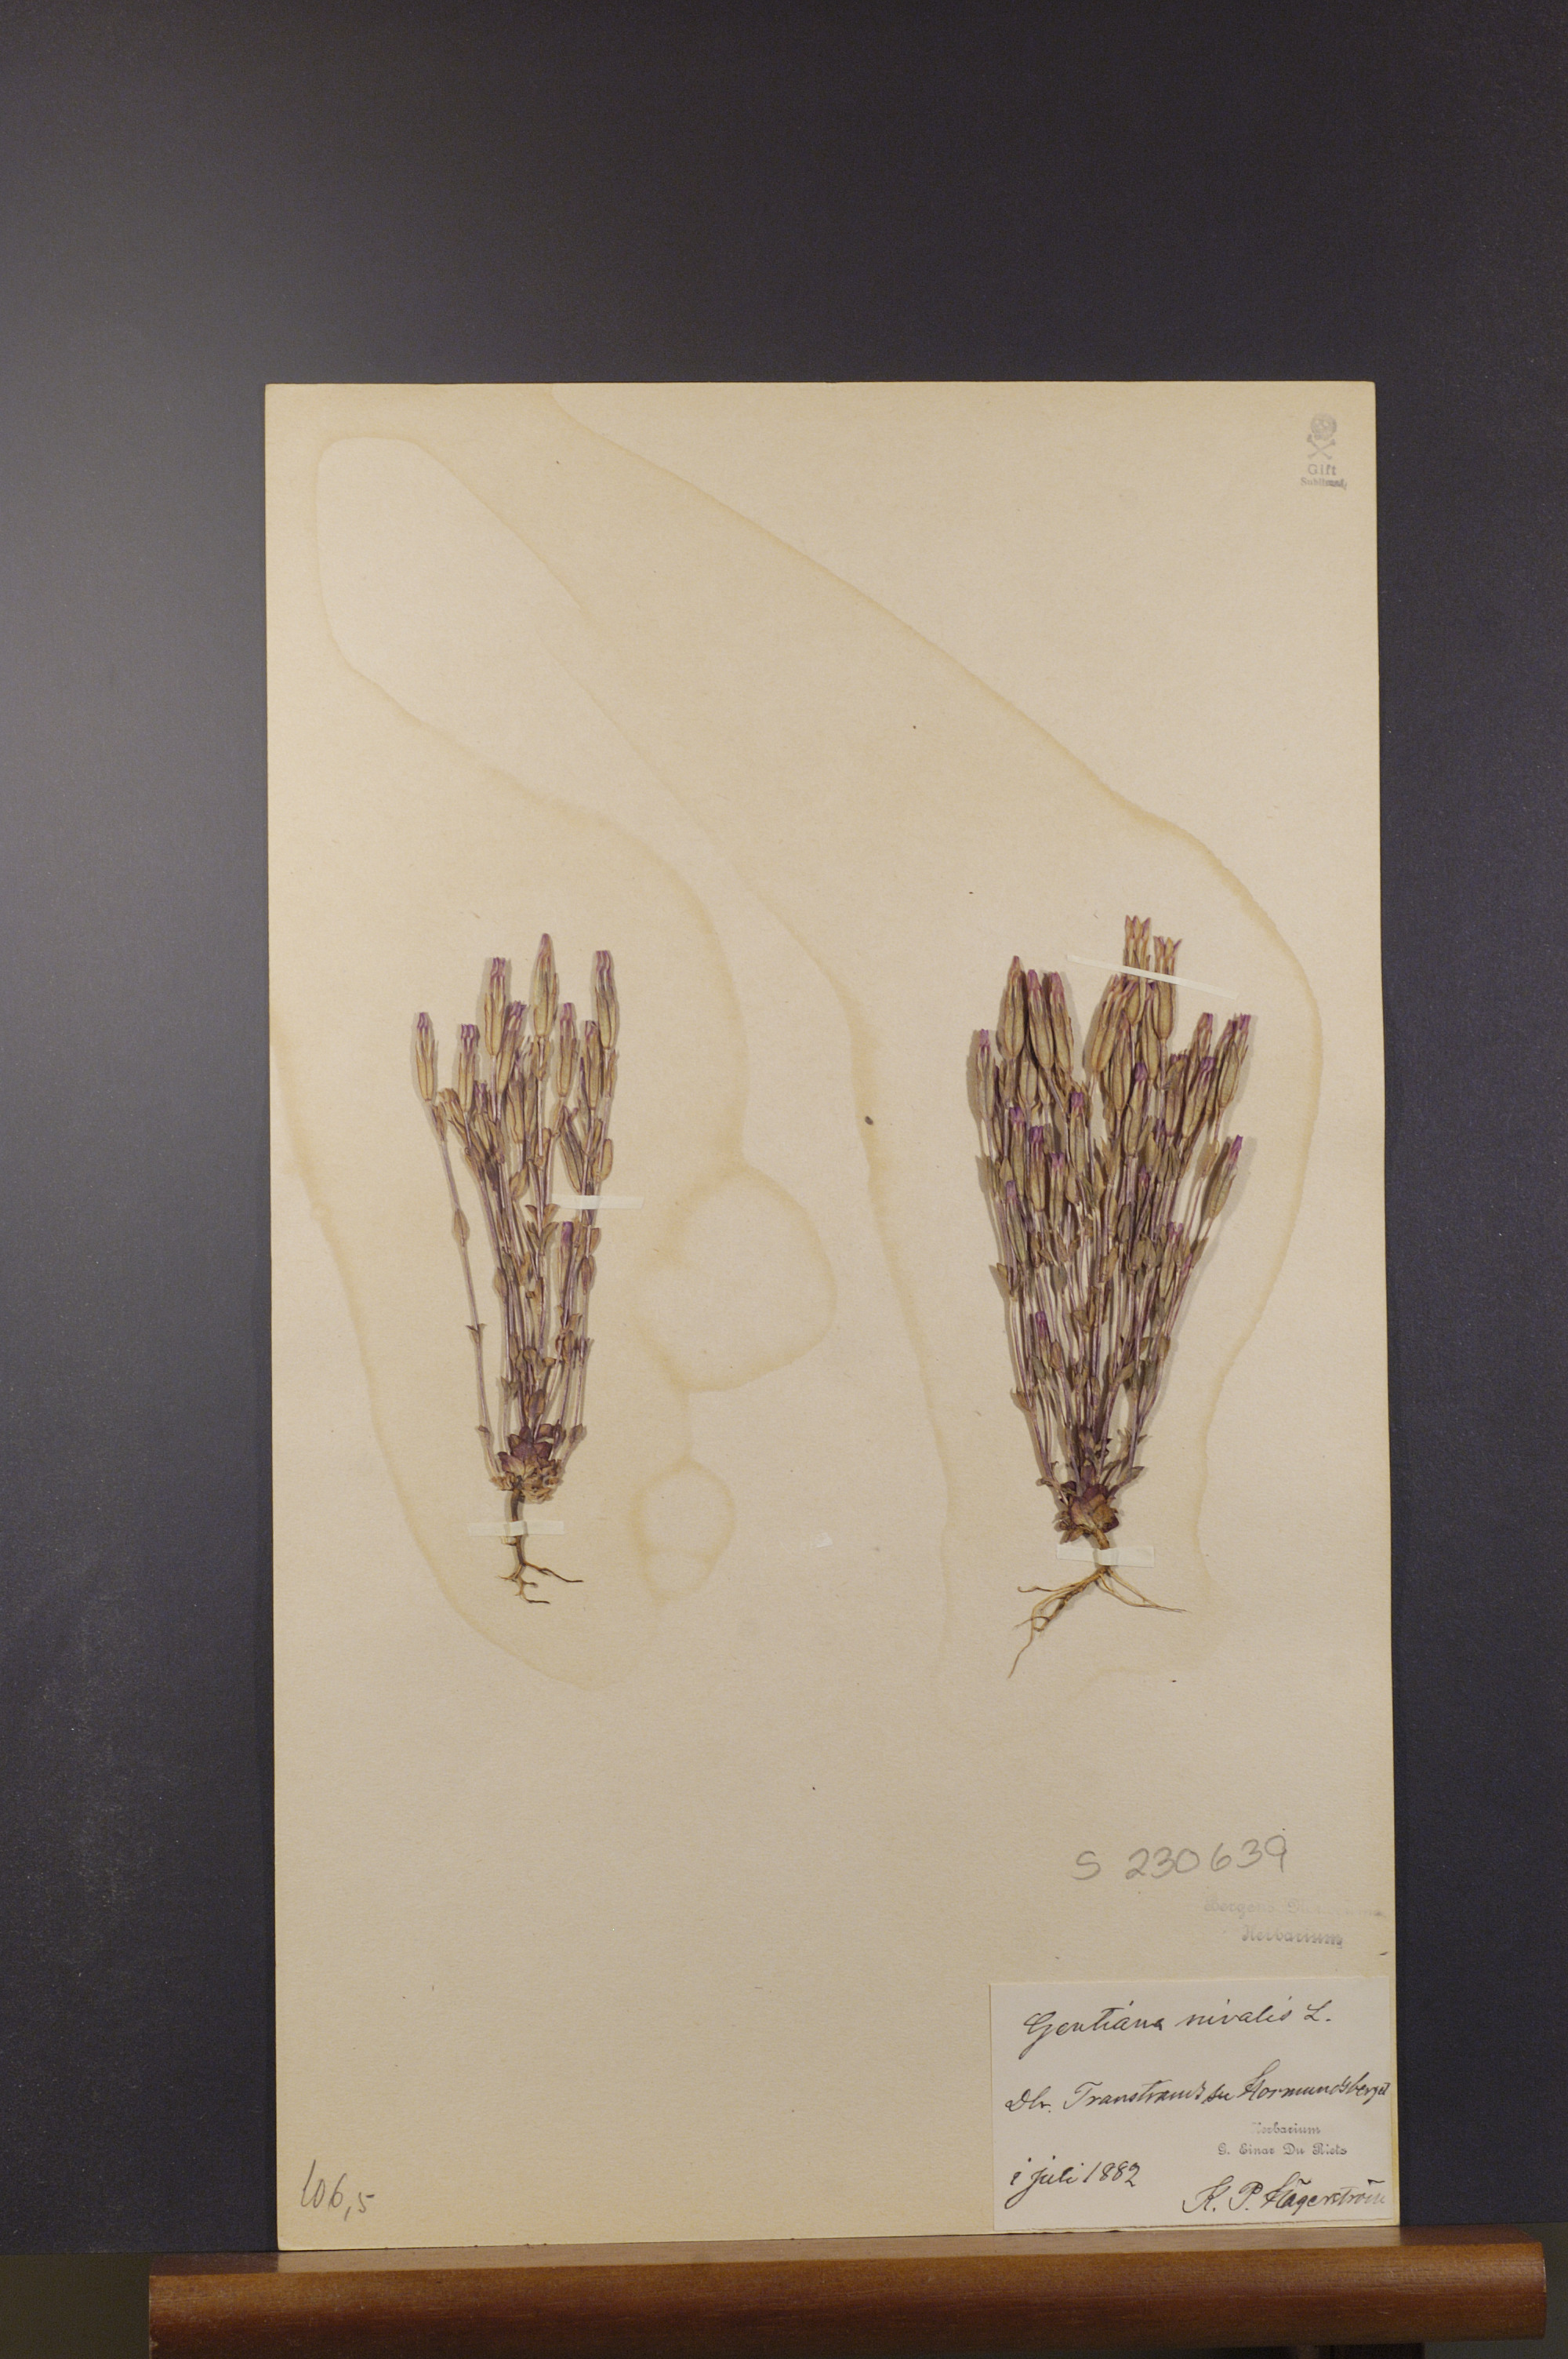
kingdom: Plantae
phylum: Tracheophyta
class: Magnoliopsida
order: Gentianales
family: Gentianaceae
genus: Gentiana
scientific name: Gentiana nivalis
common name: Alpine gentian
